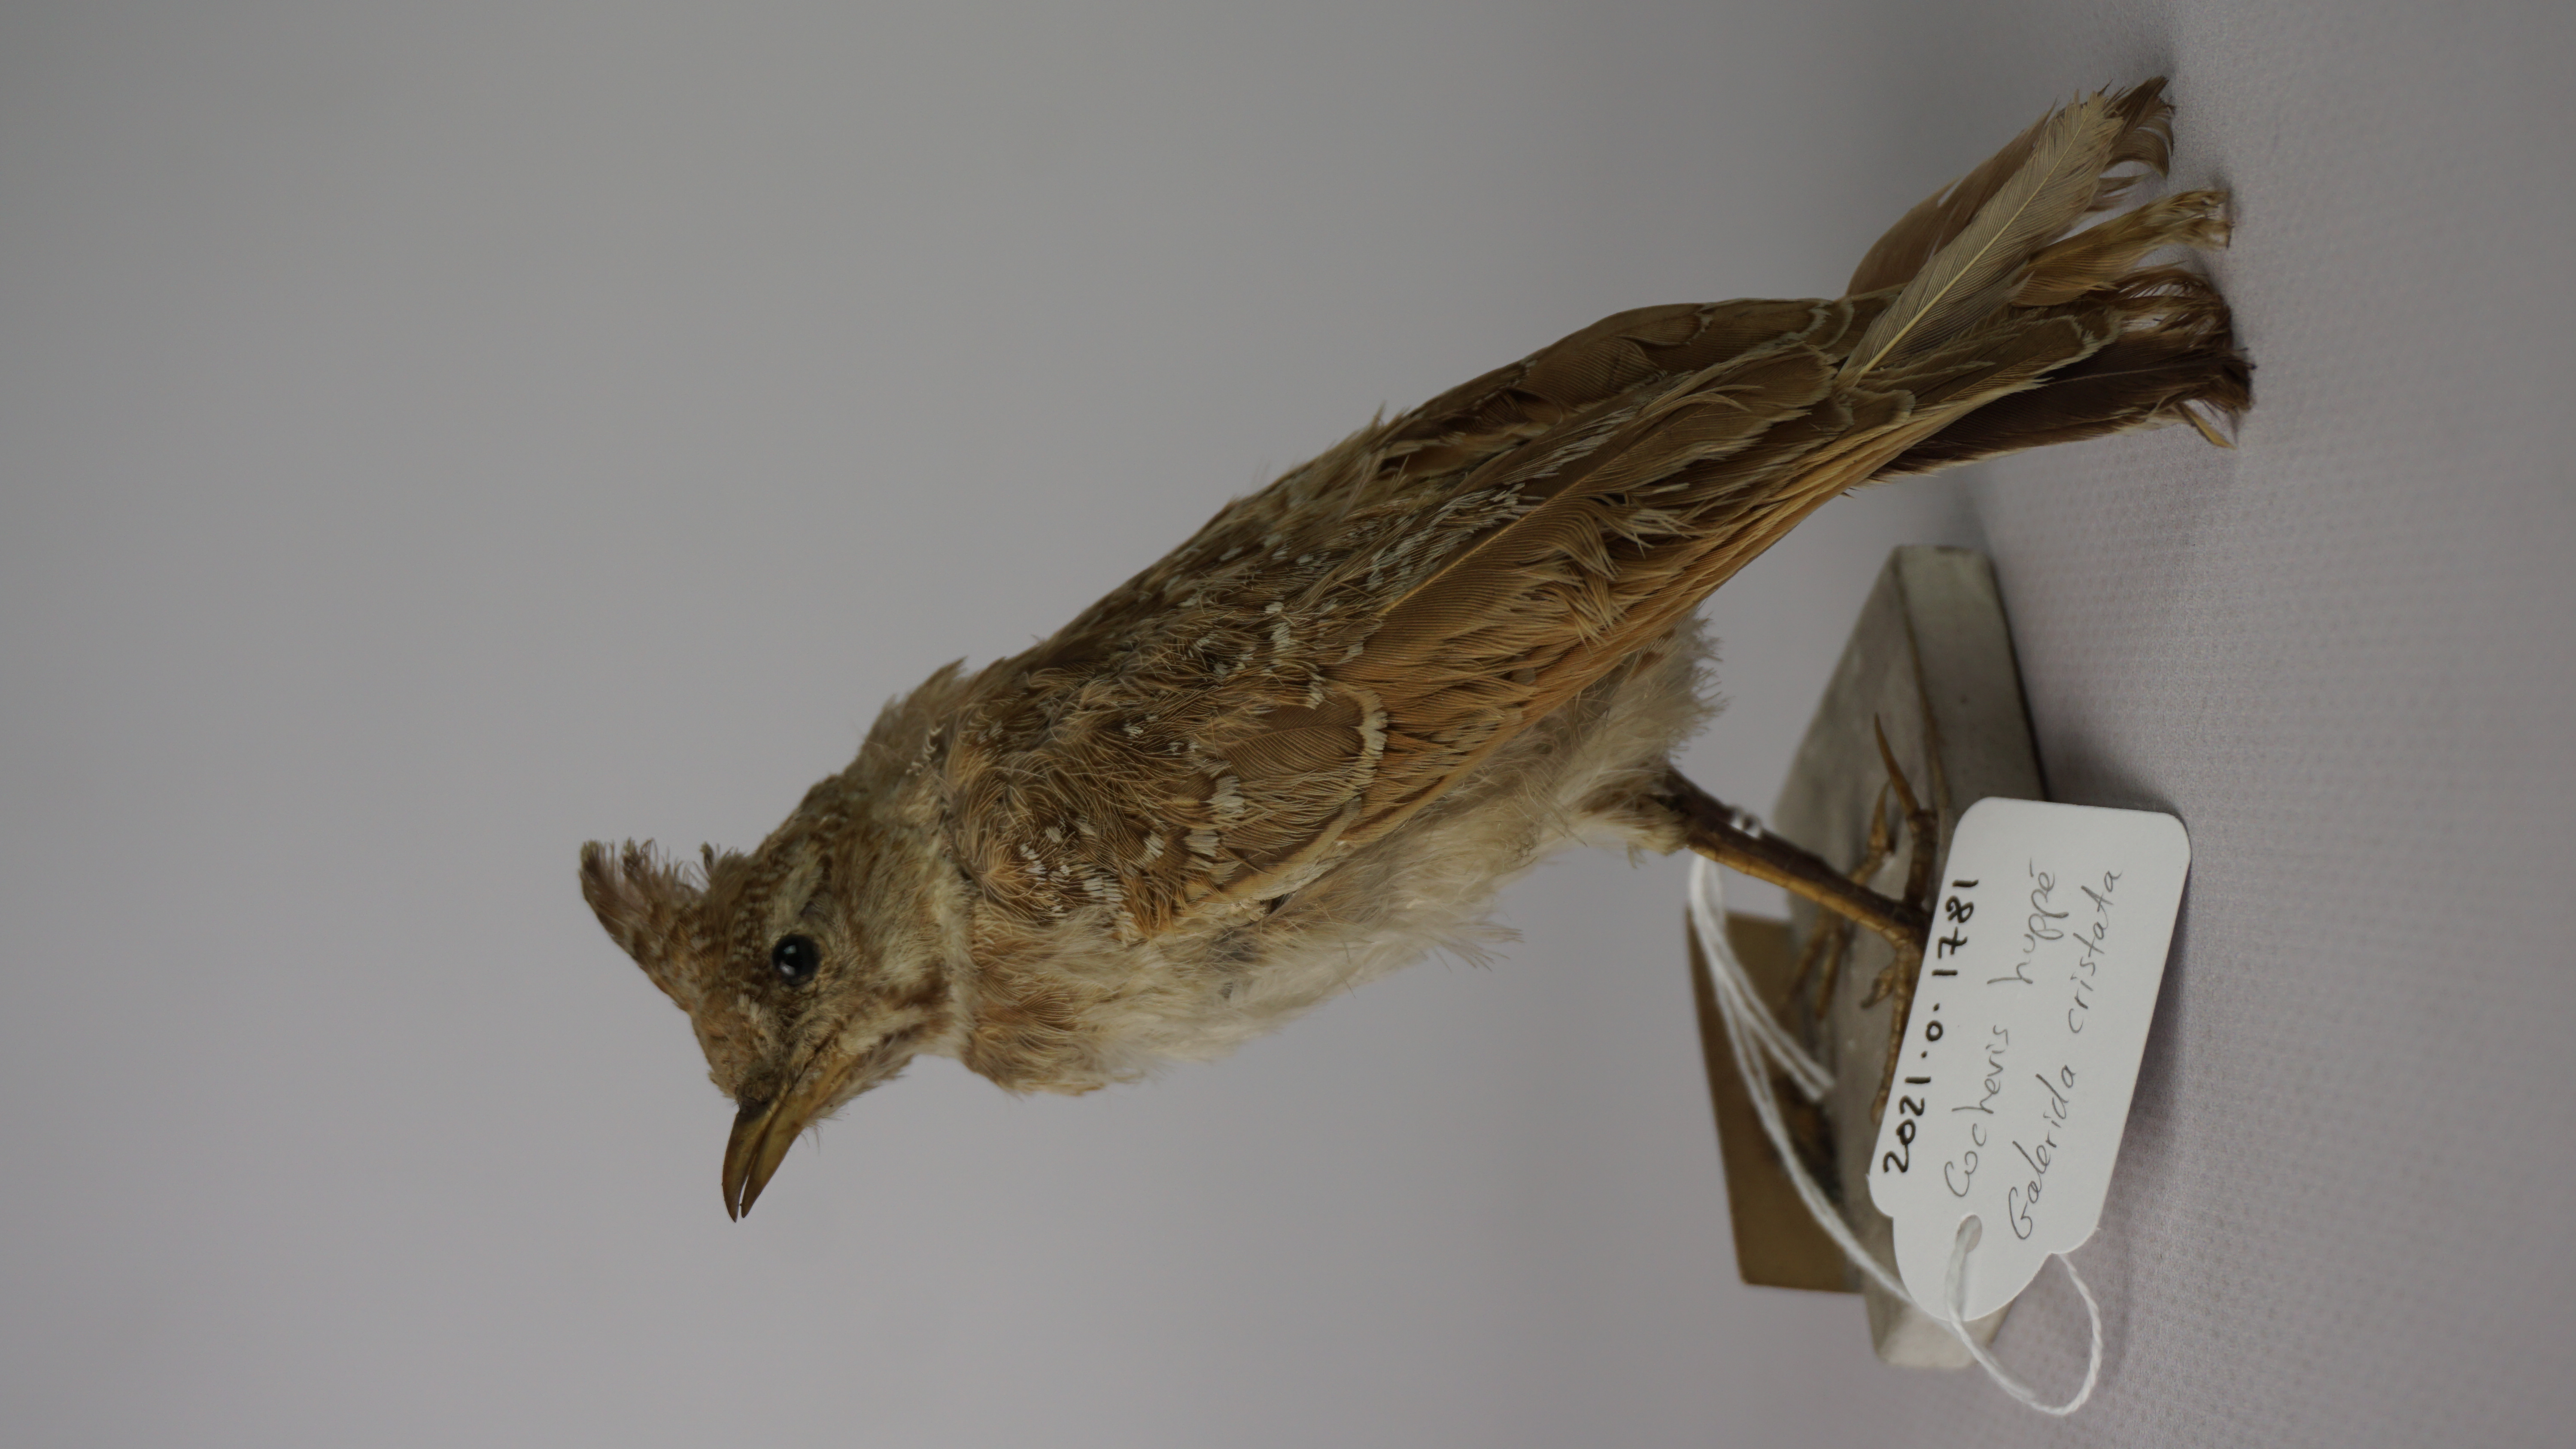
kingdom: Animalia
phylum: Chordata
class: Aves
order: Passeriformes
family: Alaudidae
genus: Galerida
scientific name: Galerida cristata
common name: Crested lark
